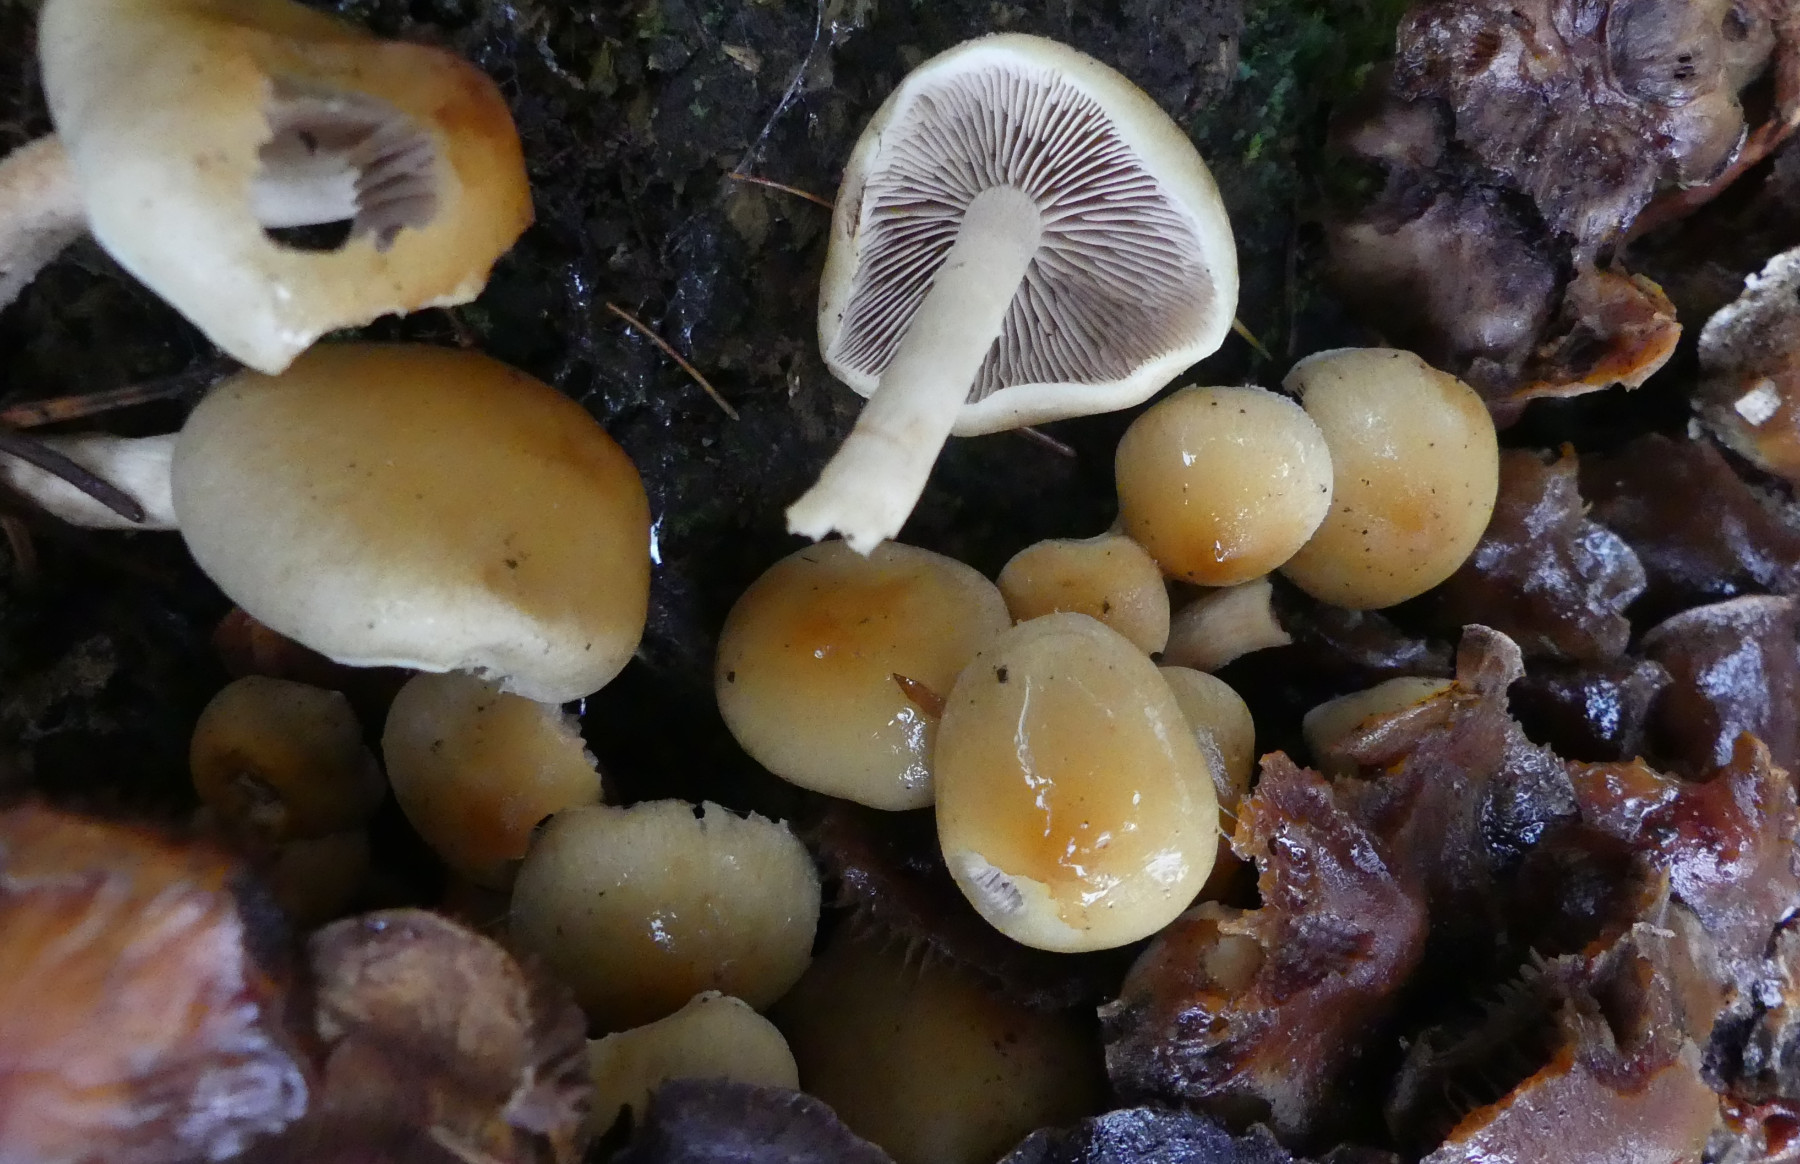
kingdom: Fungi
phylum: Basidiomycota
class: Agaricomycetes
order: Agaricales
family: Strophariaceae
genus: Hypholoma
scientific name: Hypholoma capnoides
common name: gran-svovlhat
